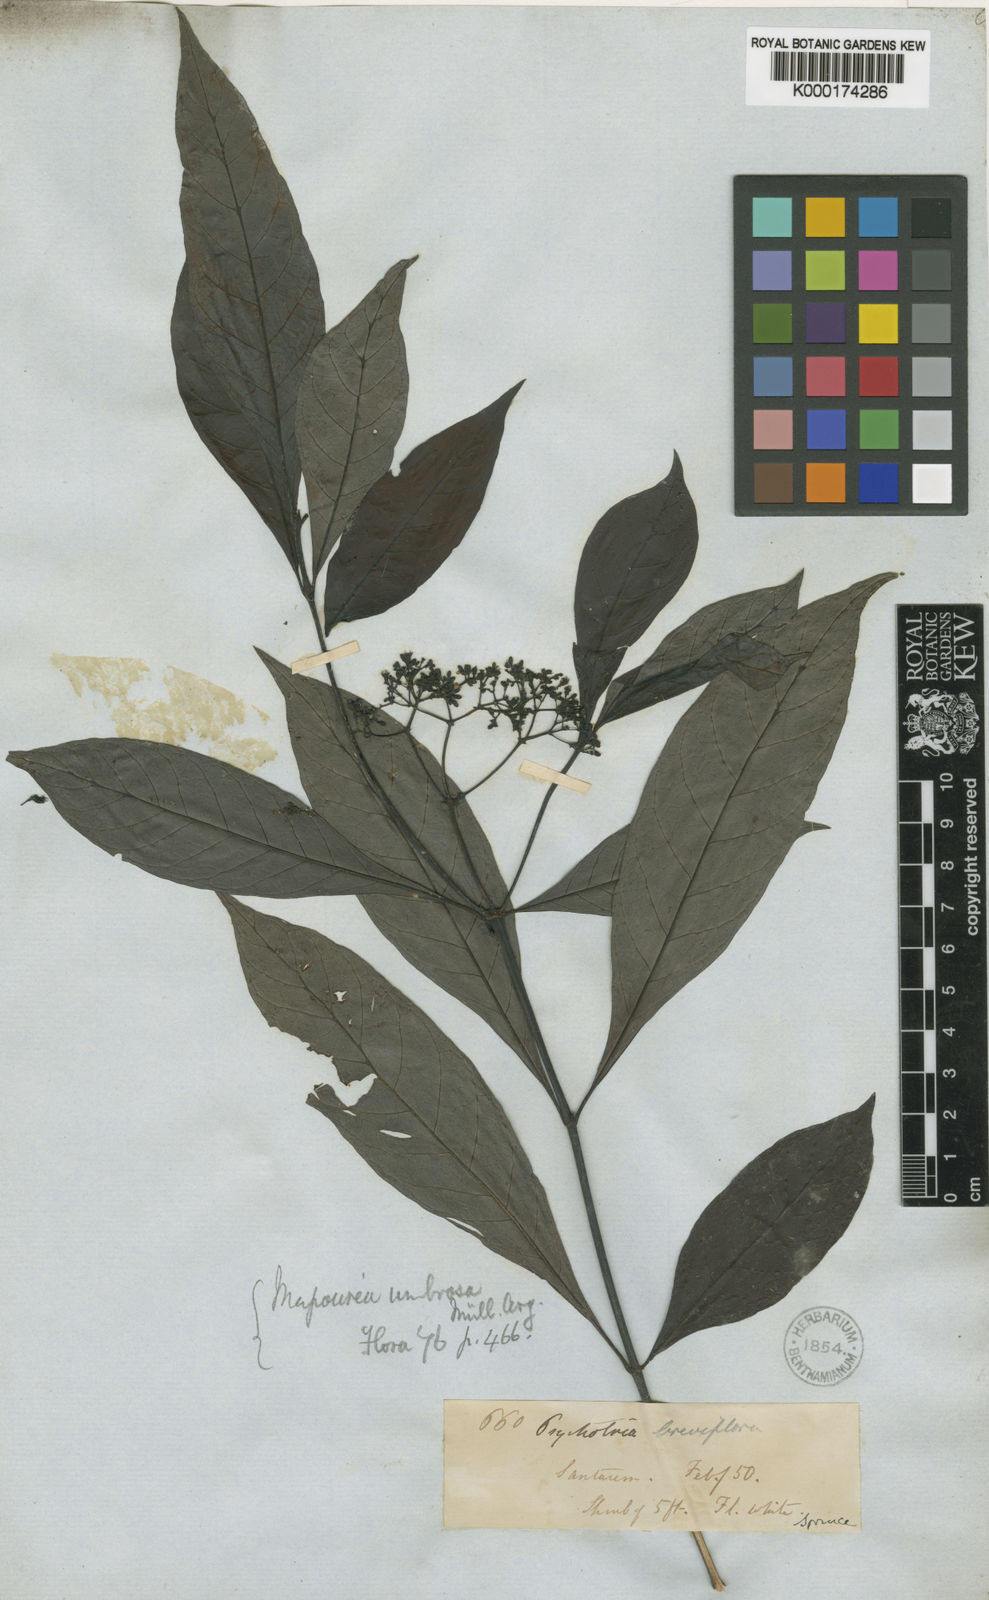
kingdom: Plantae
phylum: Tracheophyta
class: Magnoliopsida
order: Gentianales
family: Rubiaceae
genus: Psychotria
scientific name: Psychotria borjensis
